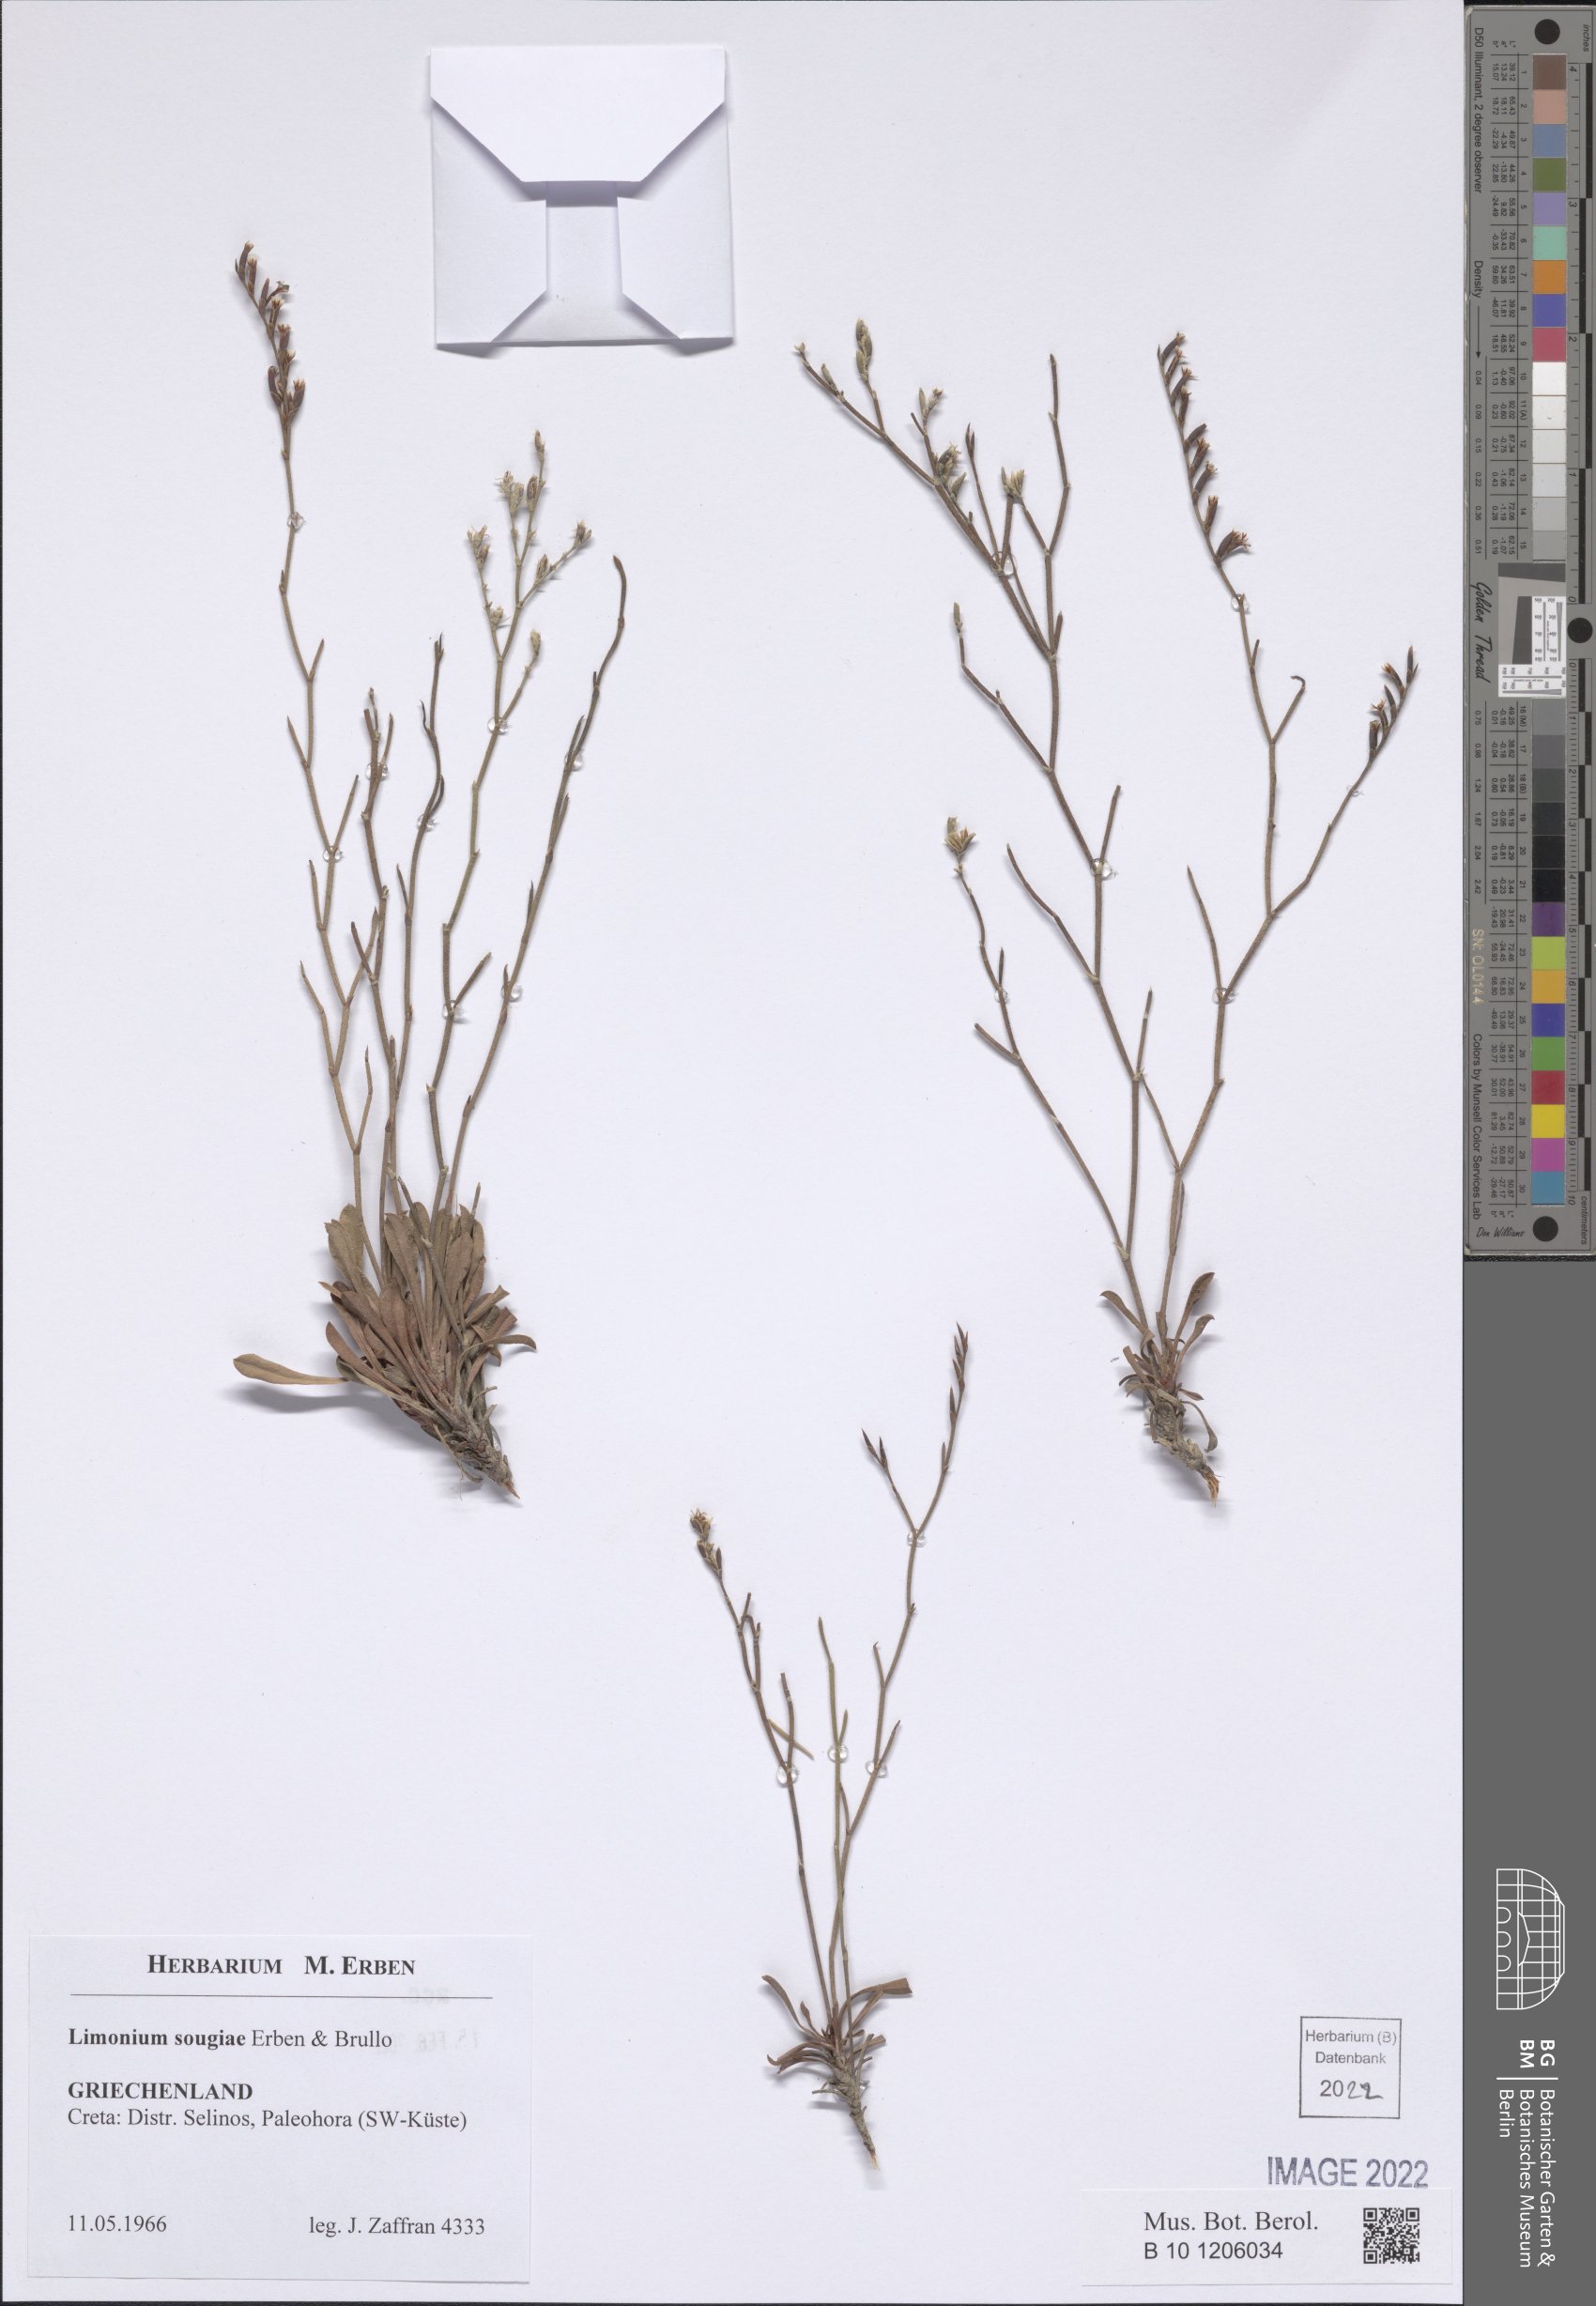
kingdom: Plantae
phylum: Tracheophyta
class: Magnoliopsida
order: Caryophyllales
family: Plumbaginaceae
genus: Limonium
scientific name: Limonium sougiae
